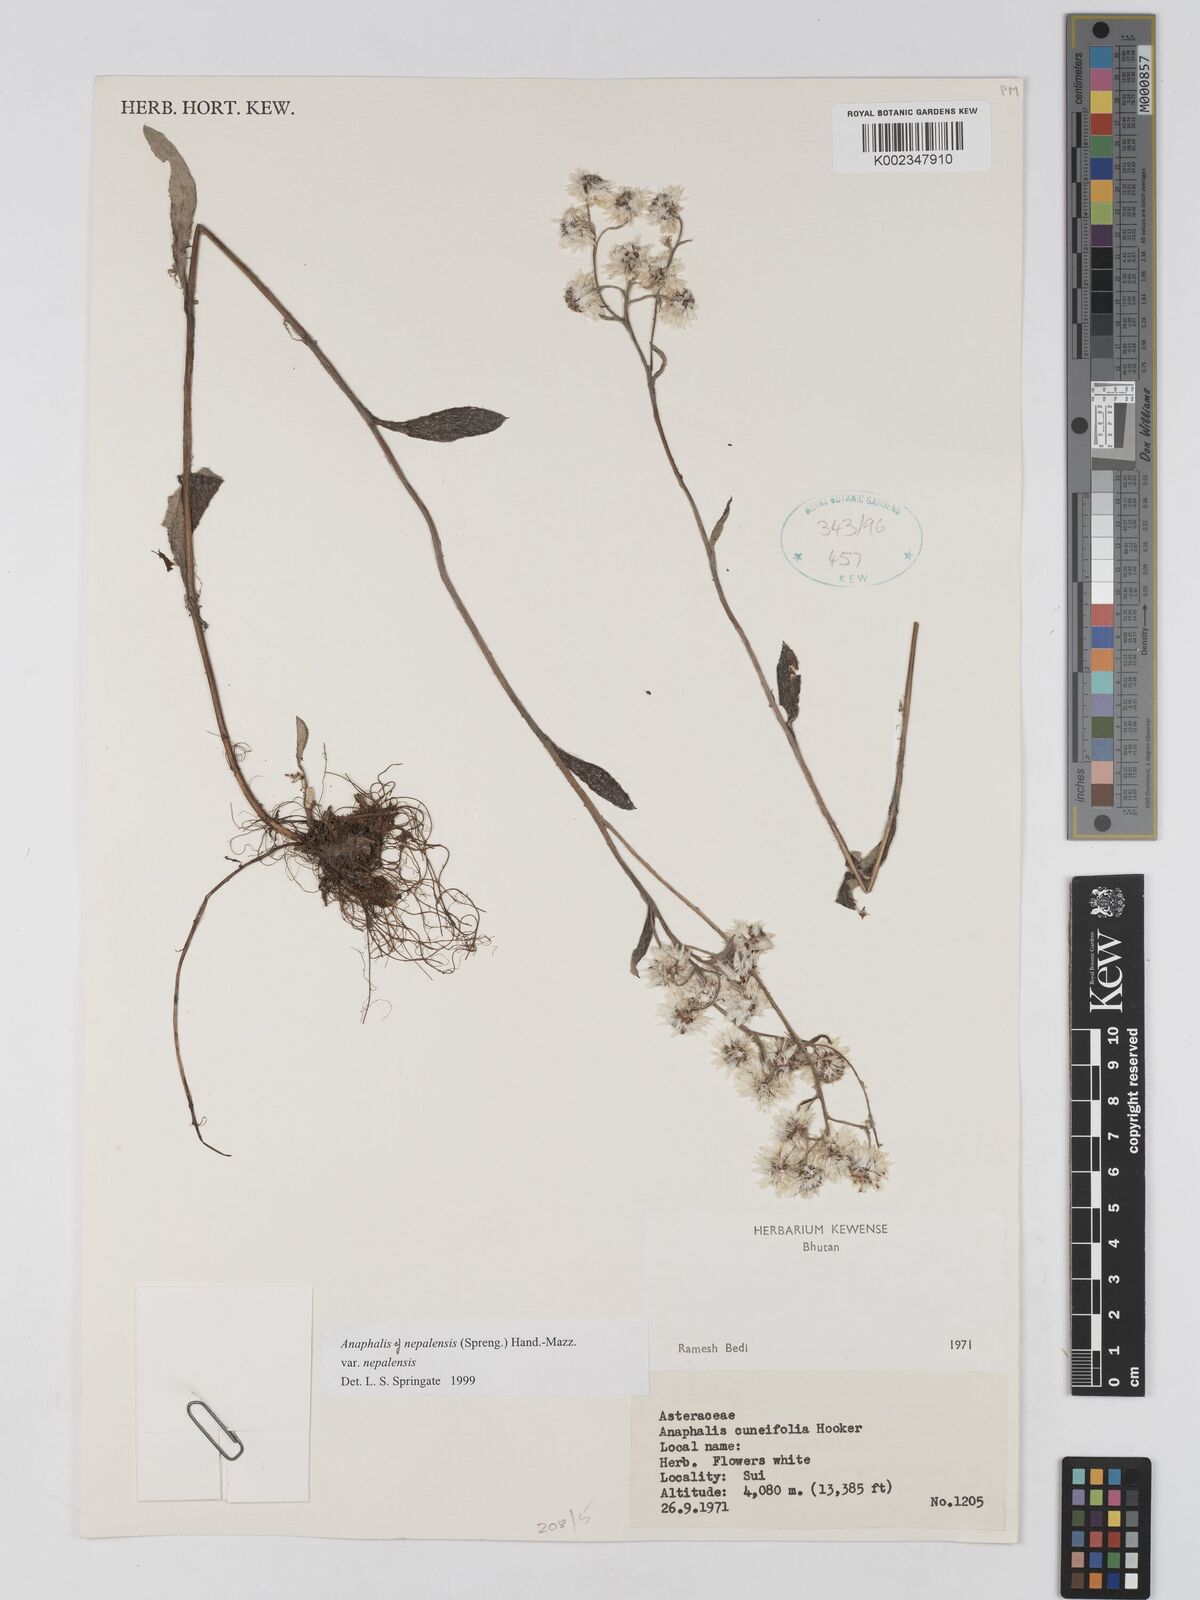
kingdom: Plantae
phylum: Tracheophyta
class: Magnoliopsida
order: Asterales
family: Asteraceae
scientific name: Asteraceae
